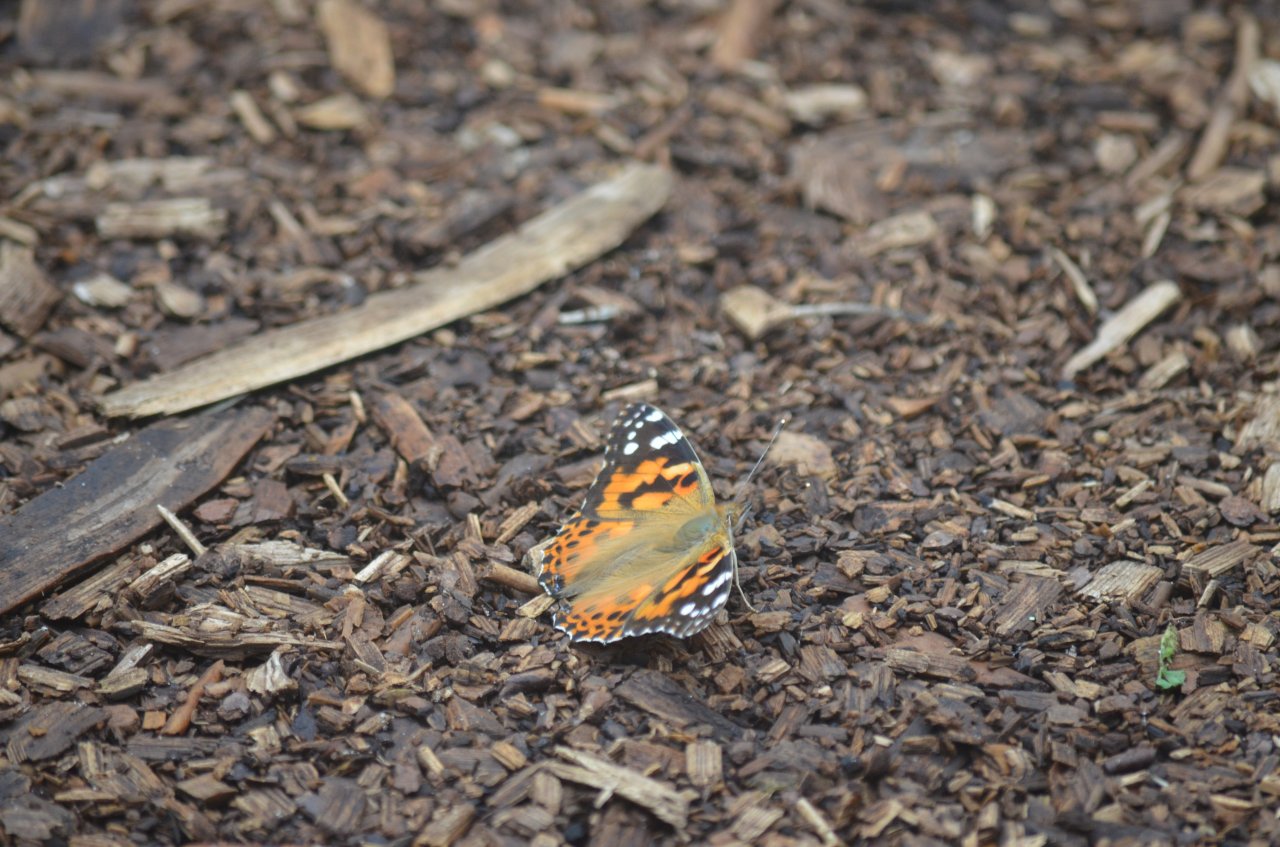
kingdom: Animalia
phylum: Arthropoda
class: Insecta
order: Lepidoptera
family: Nymphalidae
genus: Vanessa
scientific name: Vanessa cardui
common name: Painted Lady
